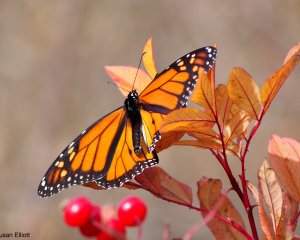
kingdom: Animalia
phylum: Arthropoda
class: Insecta
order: Lepidoptera
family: Nymphalidae
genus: Danaus
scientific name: Danaus plexippus
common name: Monarch
